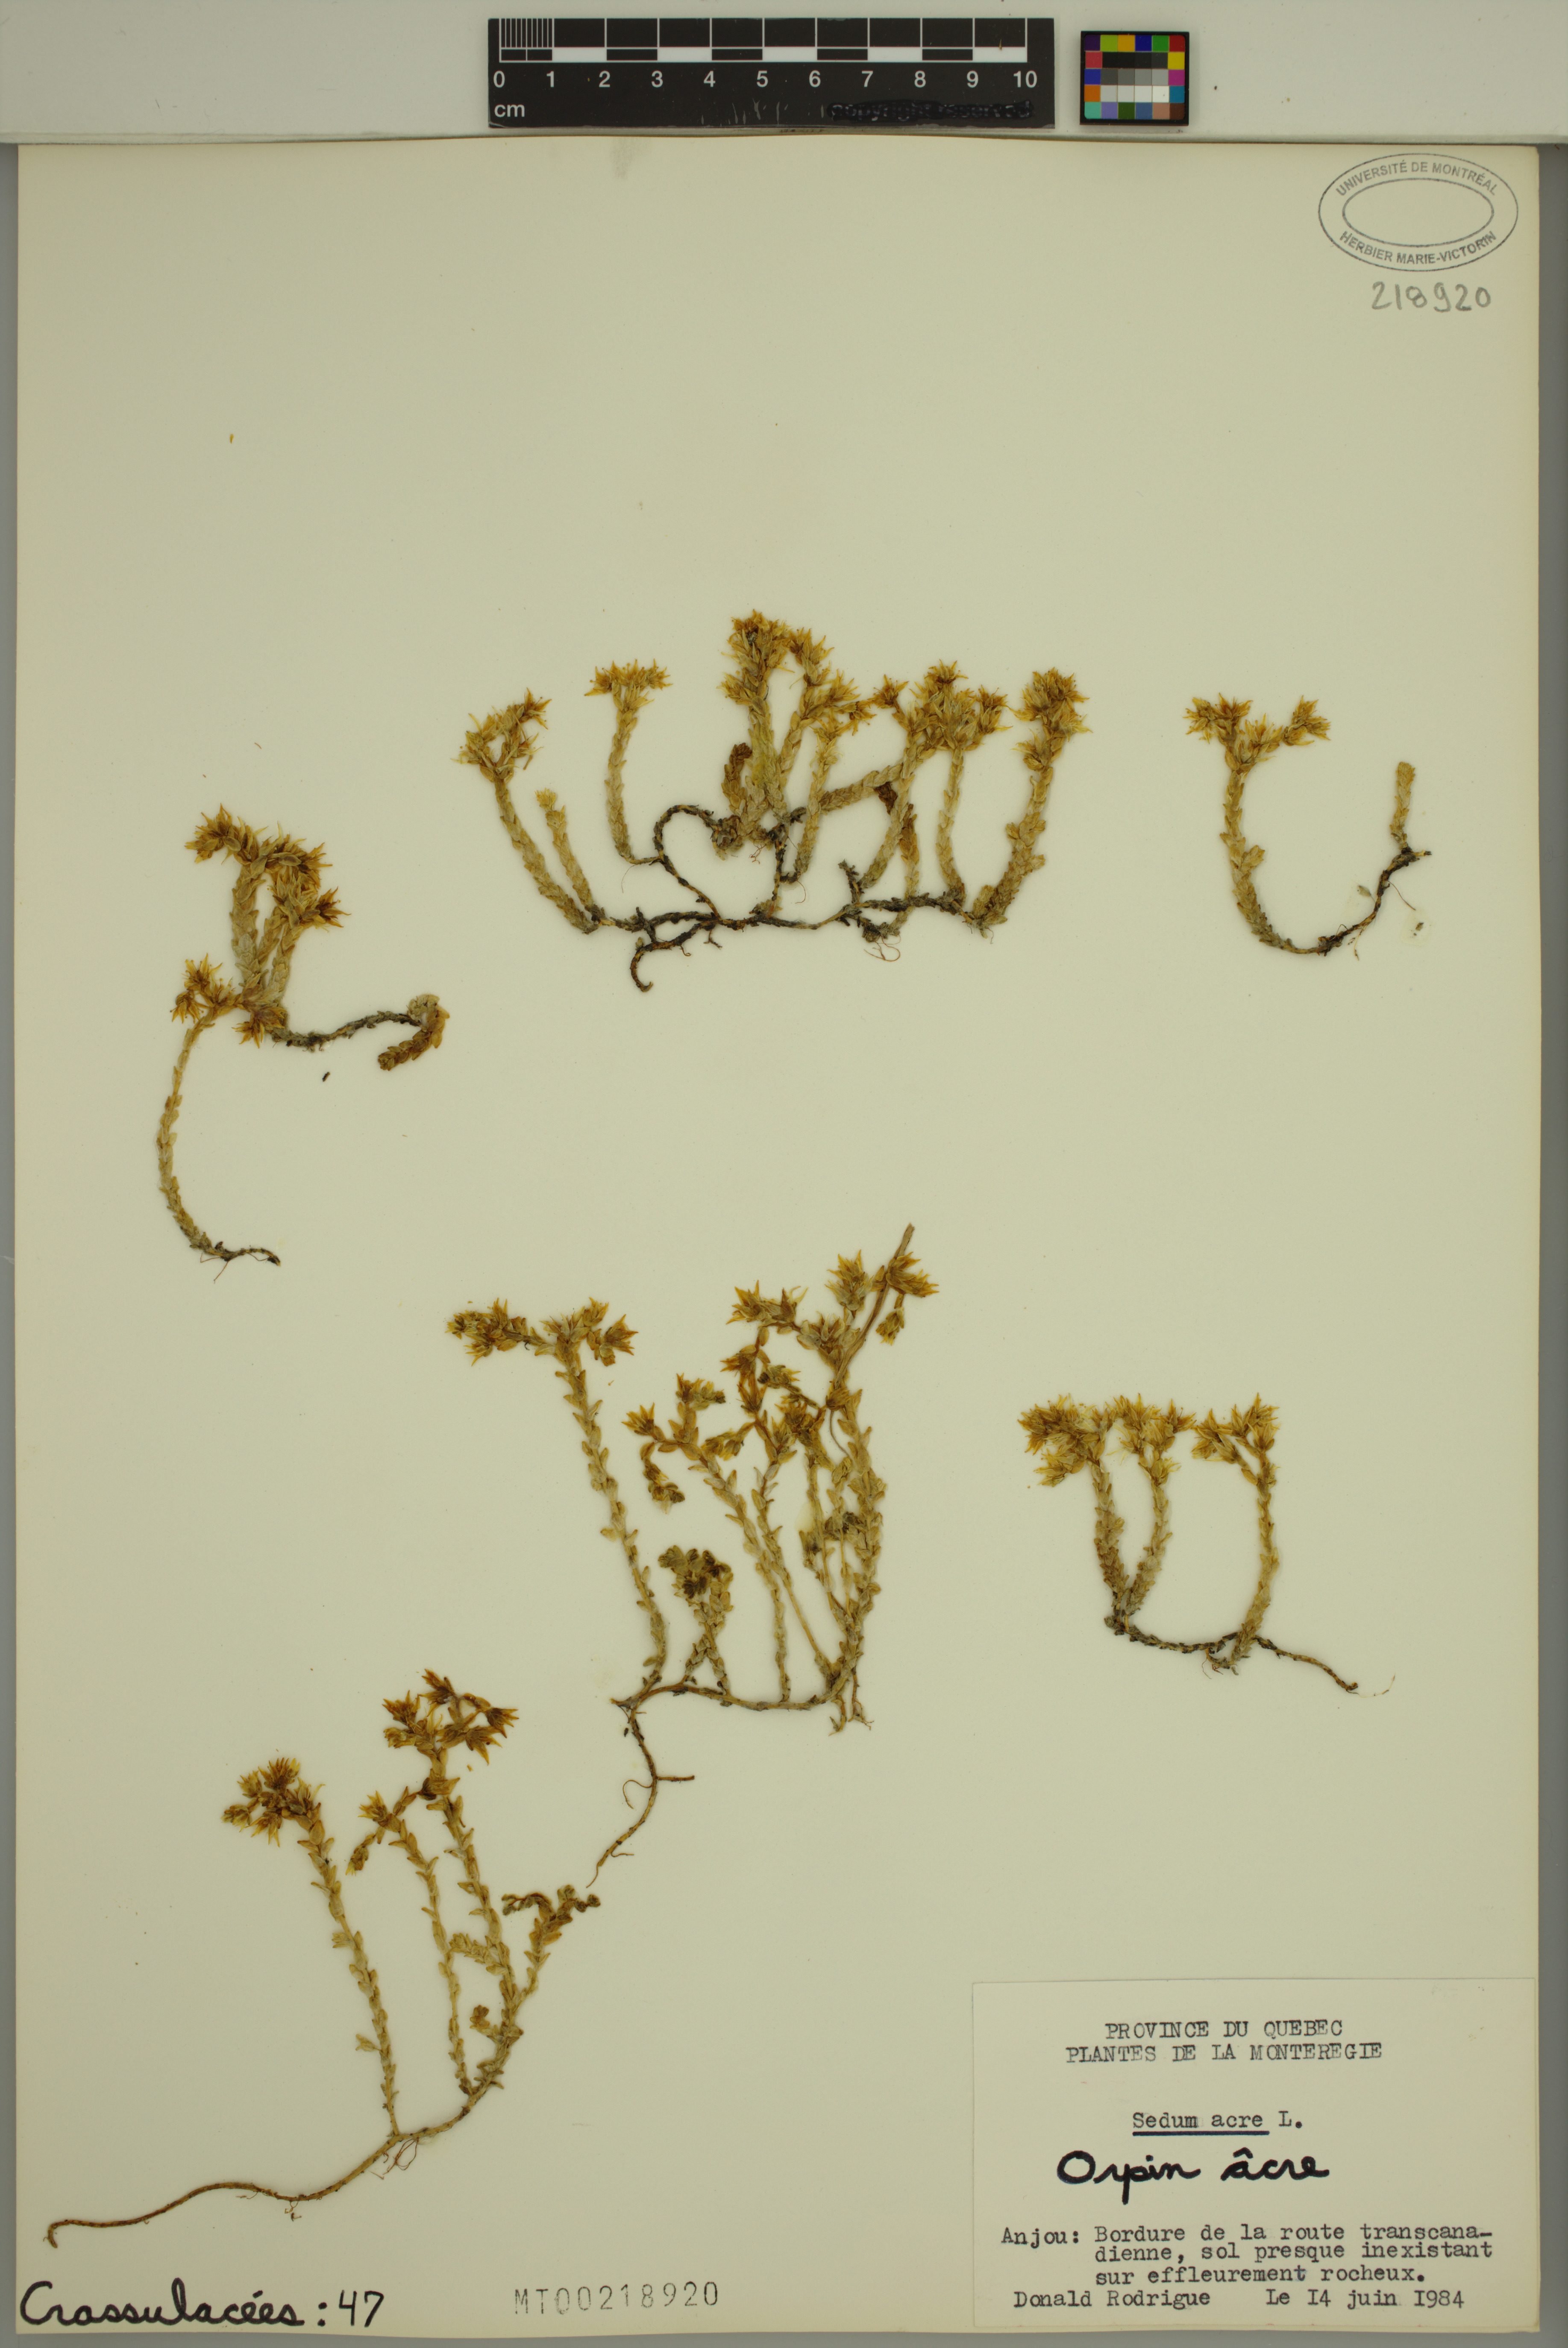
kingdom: Plantae
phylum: Tracheophyta
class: Magnoliopsida
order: Saxifragales
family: Crassulaceae
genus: Sedum
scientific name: Sedum acre
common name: Biting stonecrop
